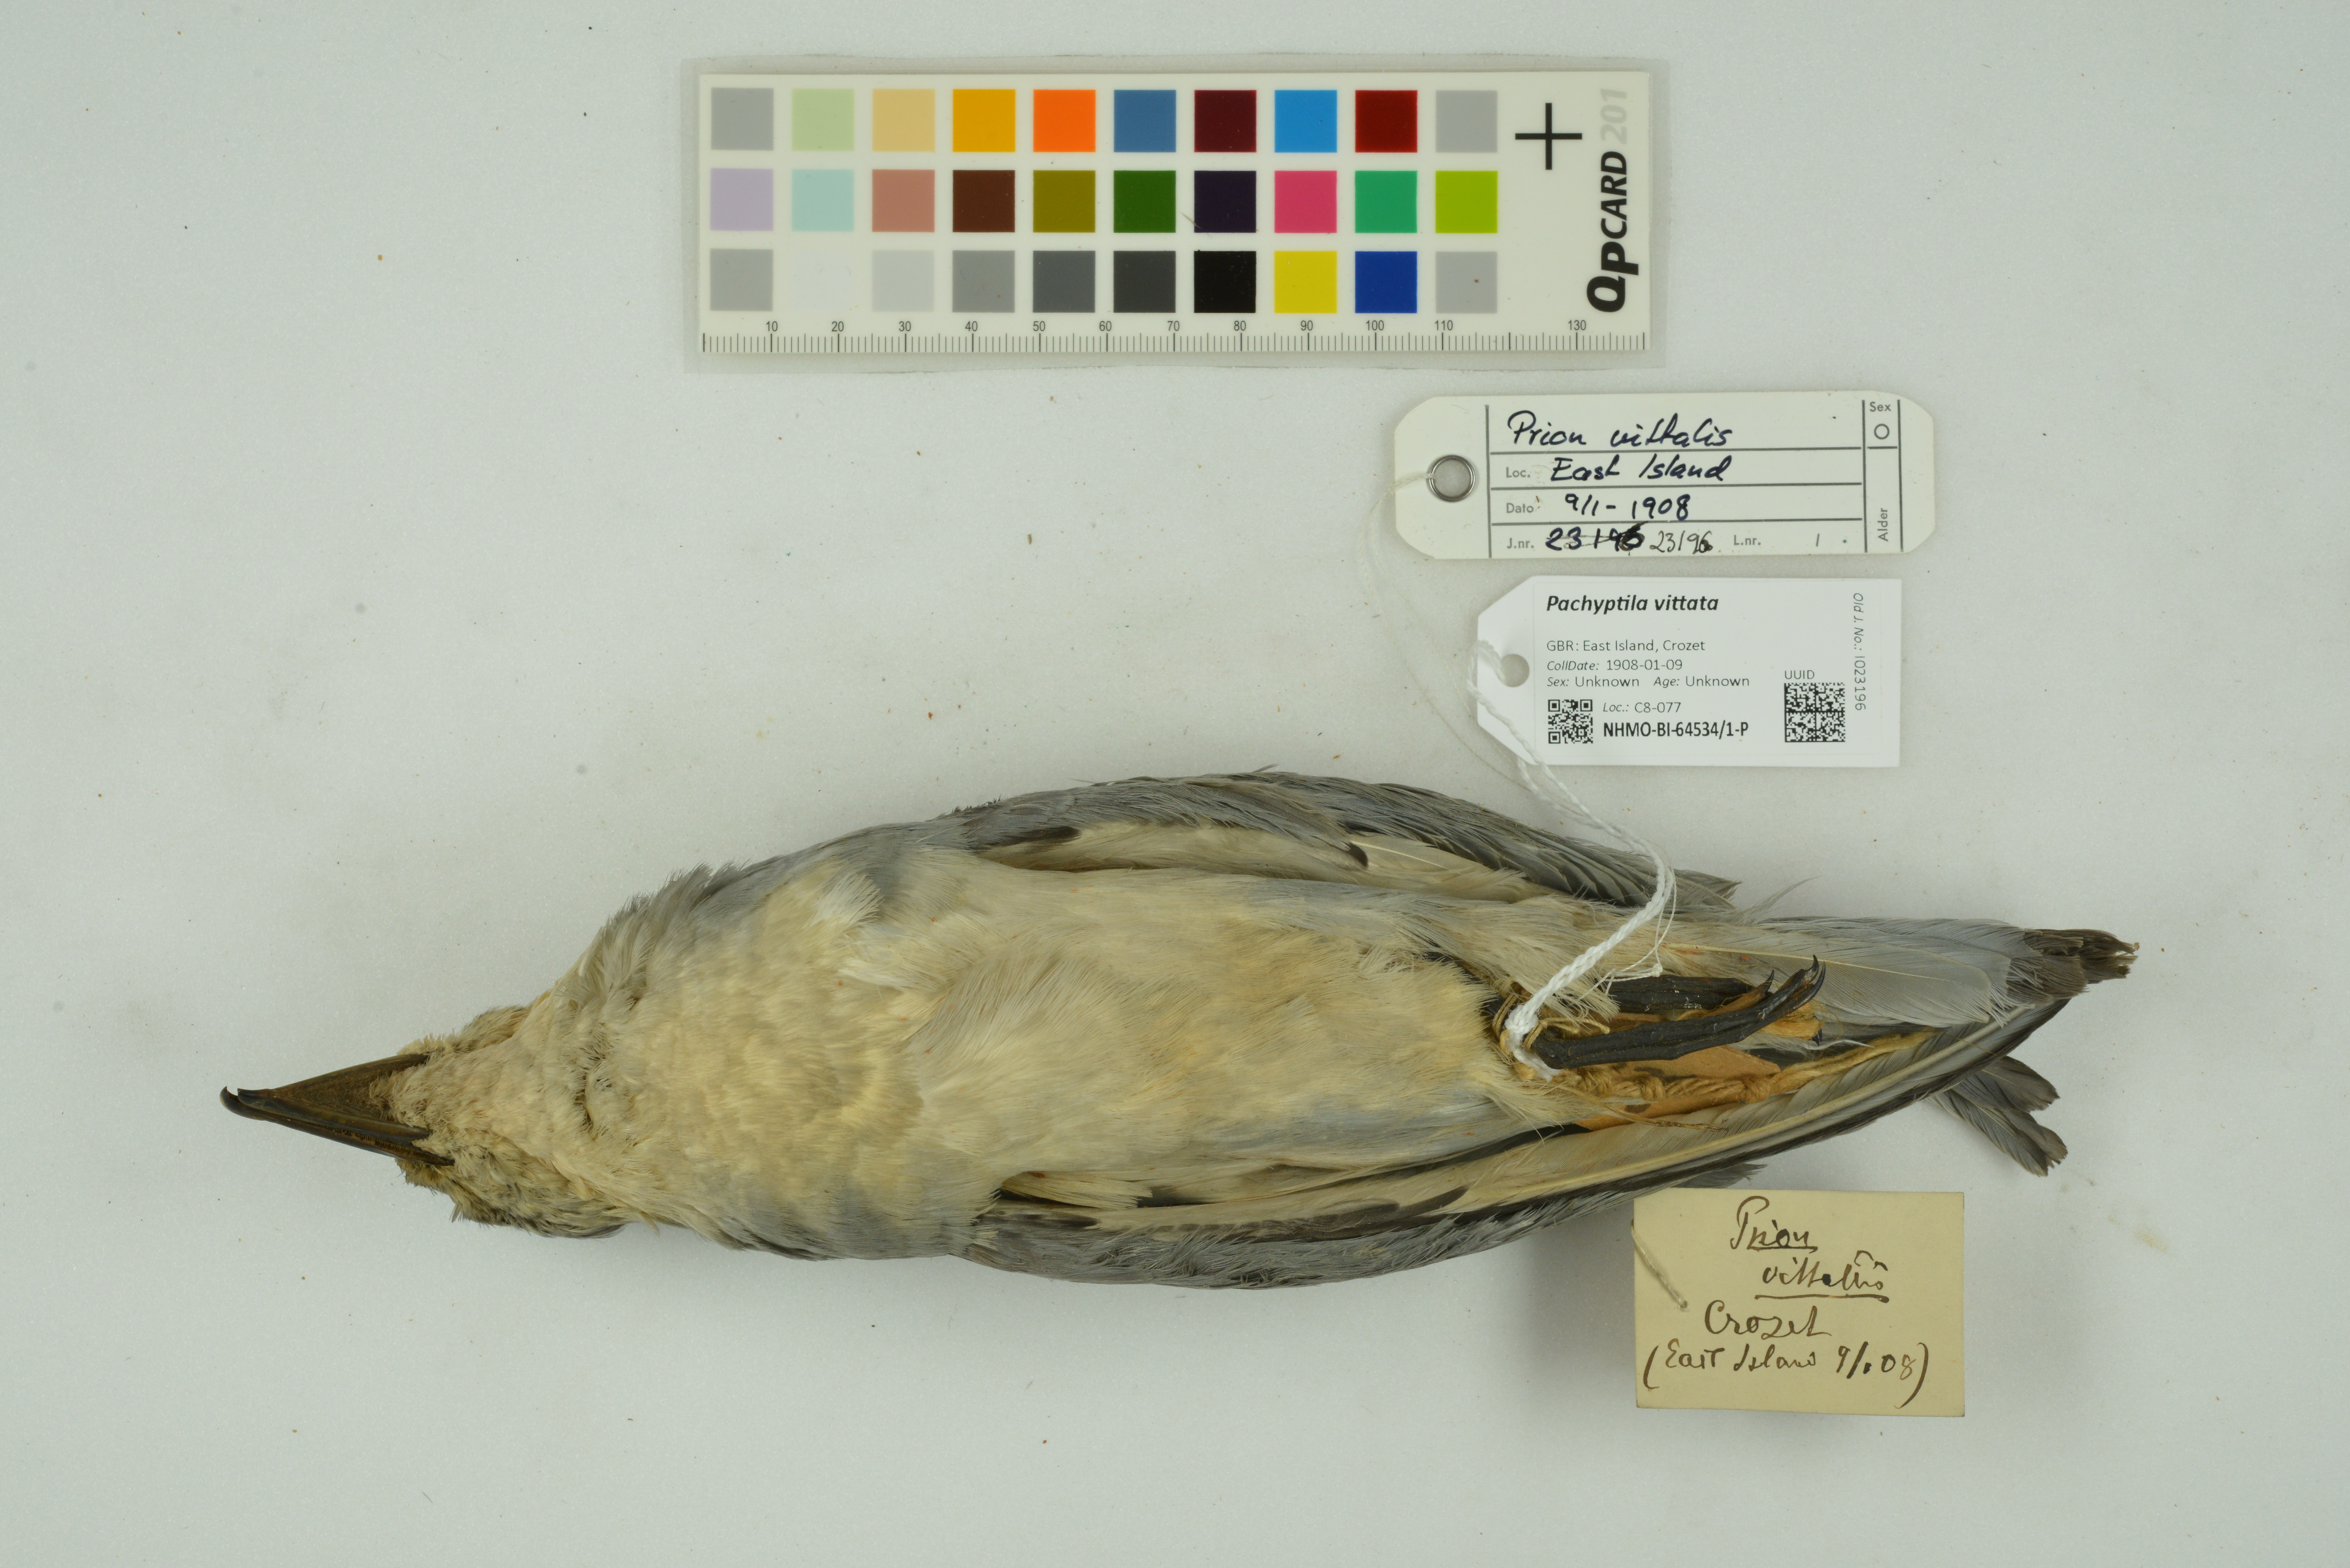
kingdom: Animalia
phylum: Chordata
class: Aves
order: Procellariiformes
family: Procellariidae
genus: Pachyptila
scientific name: Pachyptila salvini
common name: Salvin's prion
